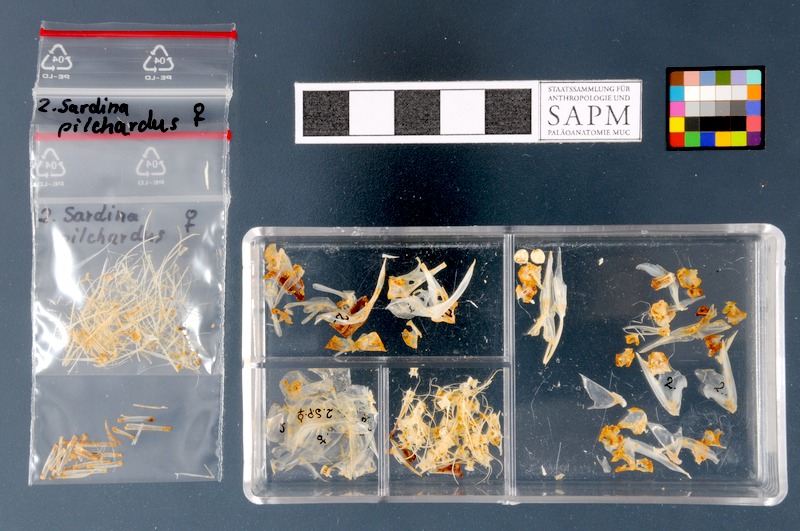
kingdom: Animalia
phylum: Chordata
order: Clupeiformes
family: Clupeidae
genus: Sardina
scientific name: Sardina pilchardus
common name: Pilchard
